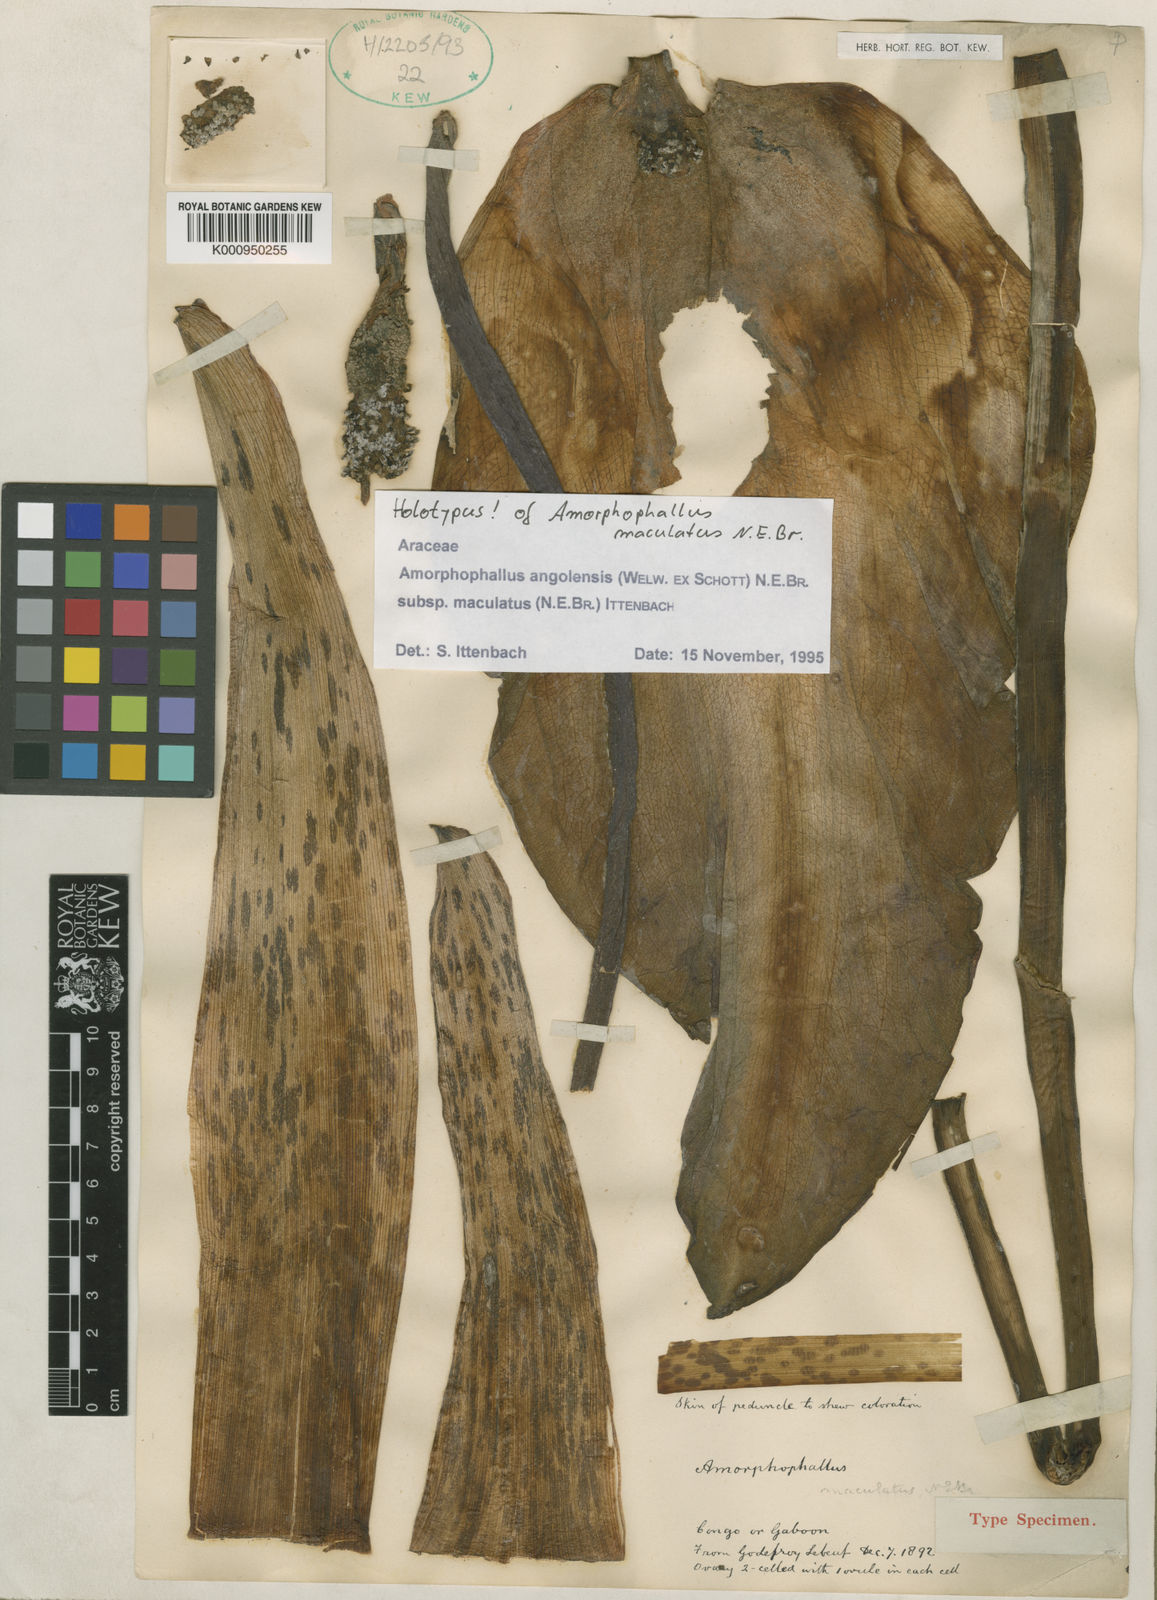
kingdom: Plantae
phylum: Tracheophyta
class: Liliopsida
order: Alismatales
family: Araceae
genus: Amorphophallus
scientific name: Amorphophallus angolensis
